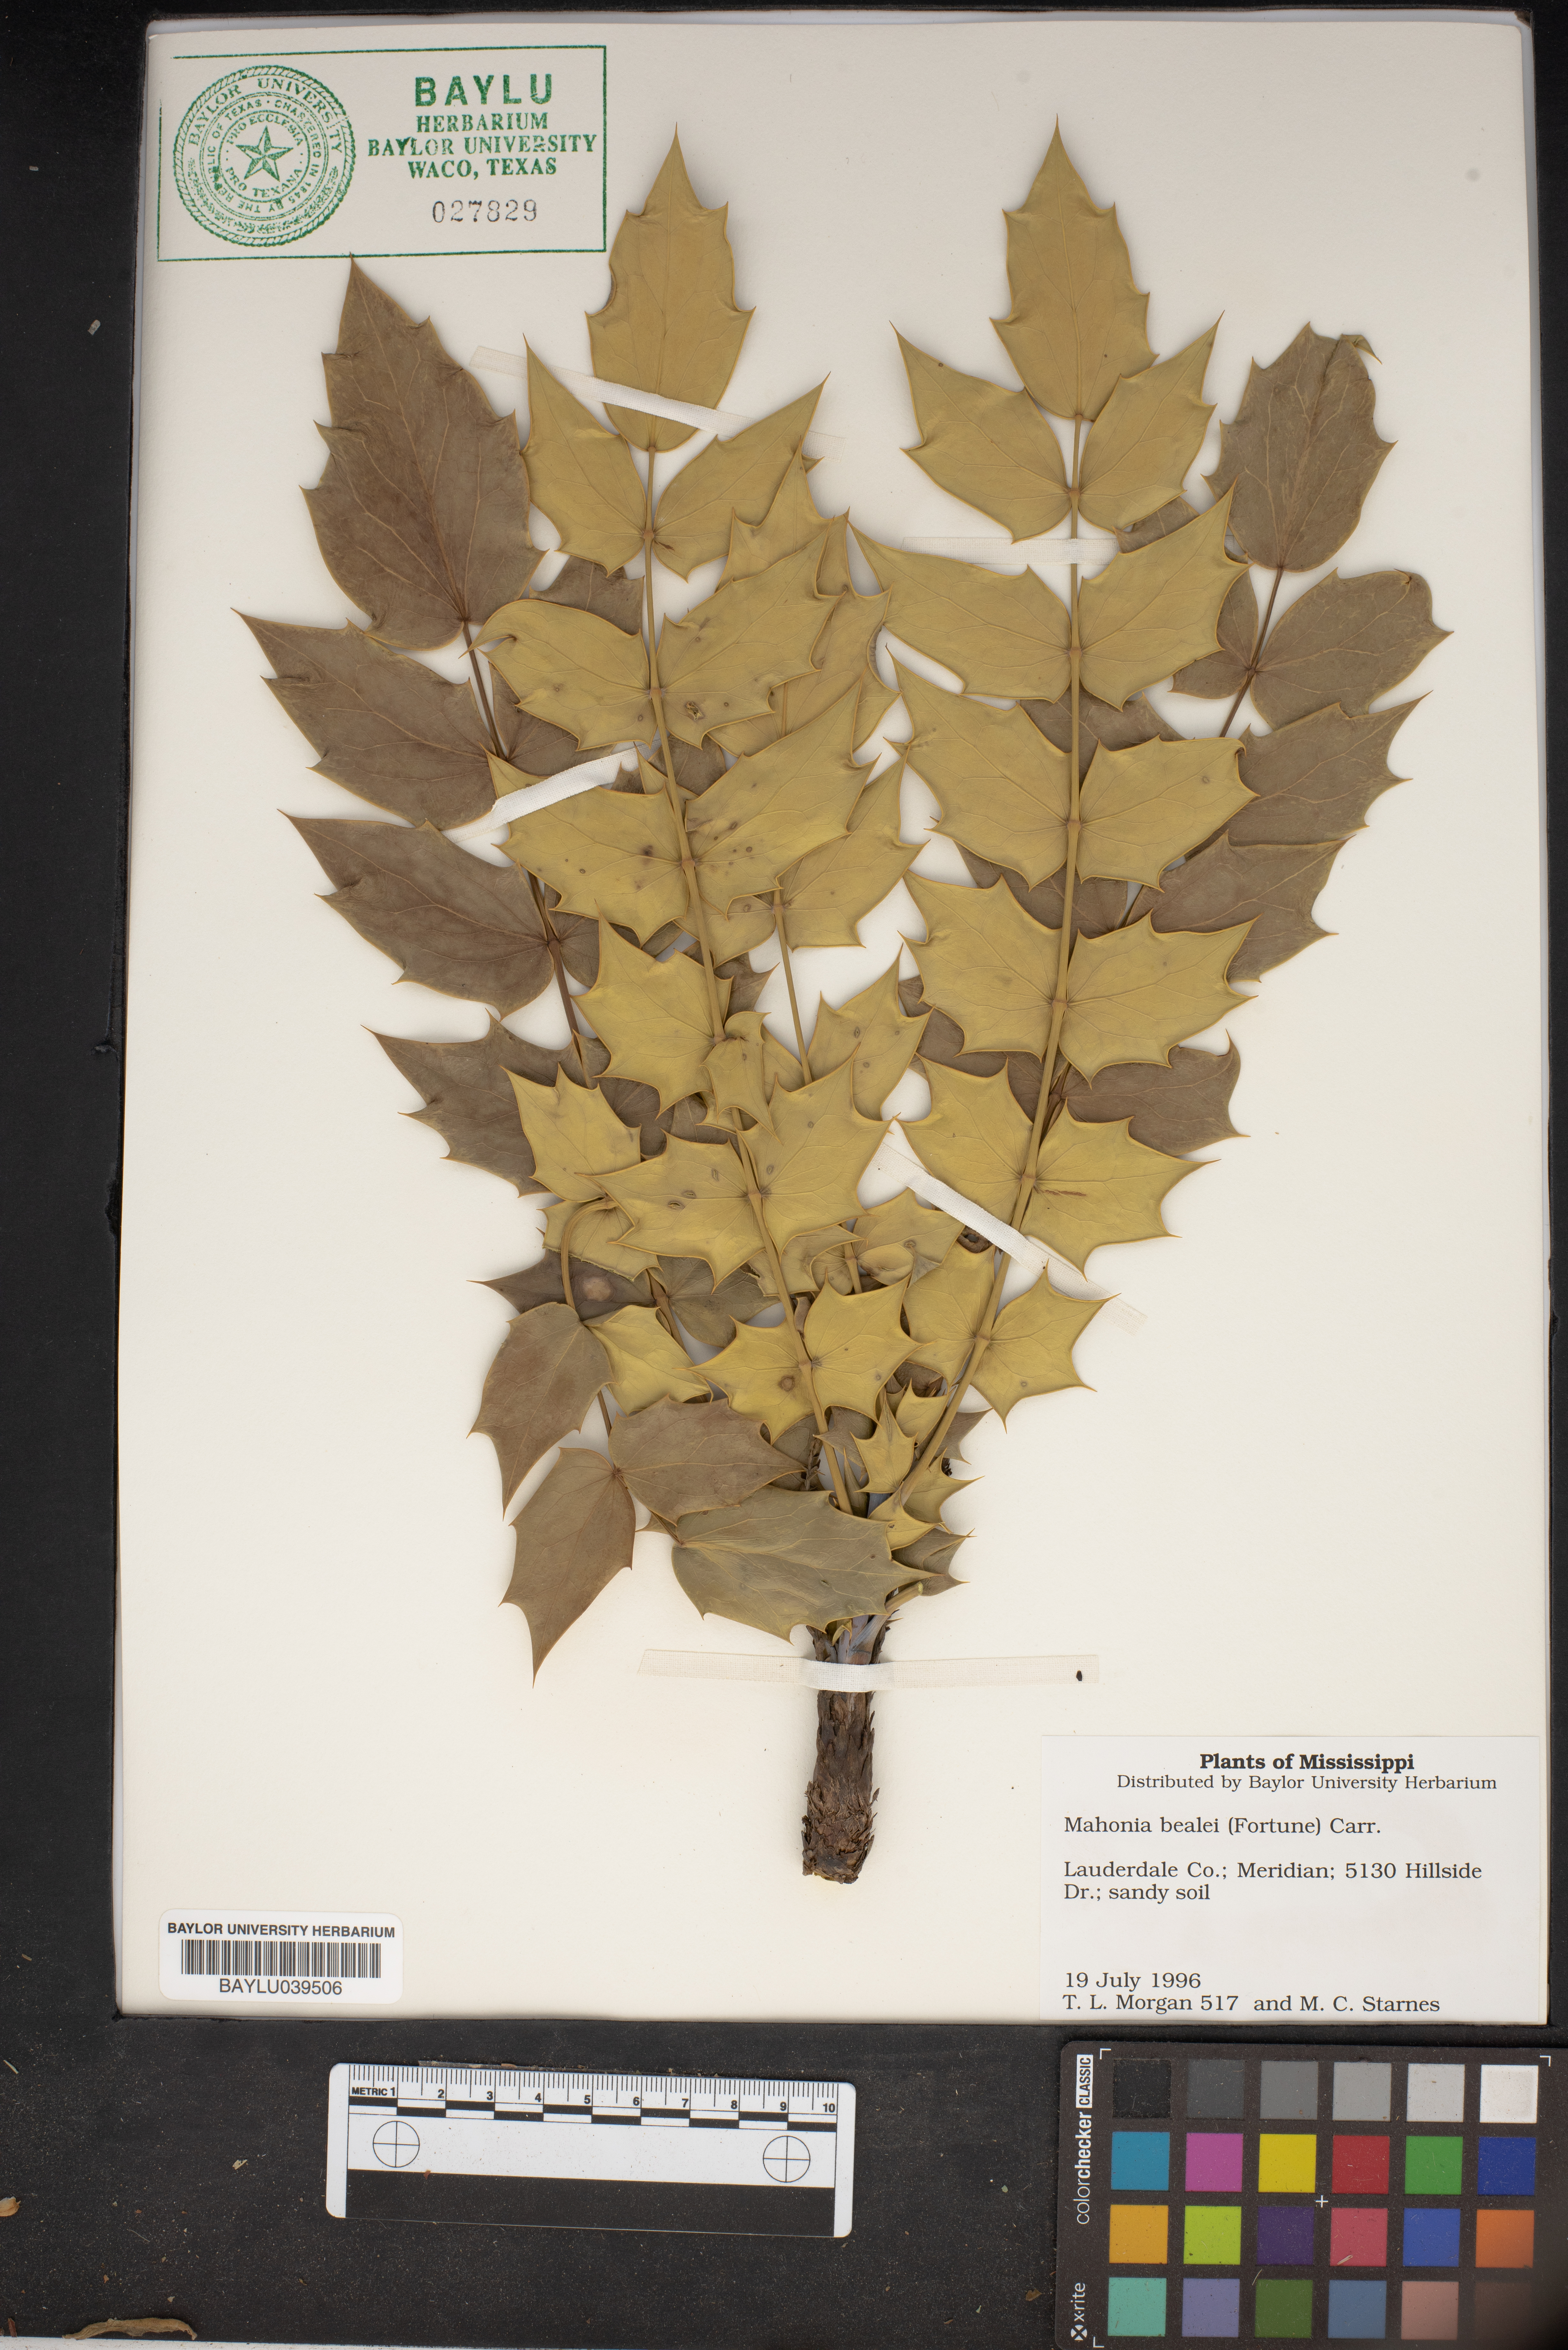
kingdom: Plantae
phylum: Tracheophyta
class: Magnoliopsida
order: Ranunculales
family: Berberidaceae
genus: Berberis
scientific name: Berberis darwinii
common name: Darwin's barberry
